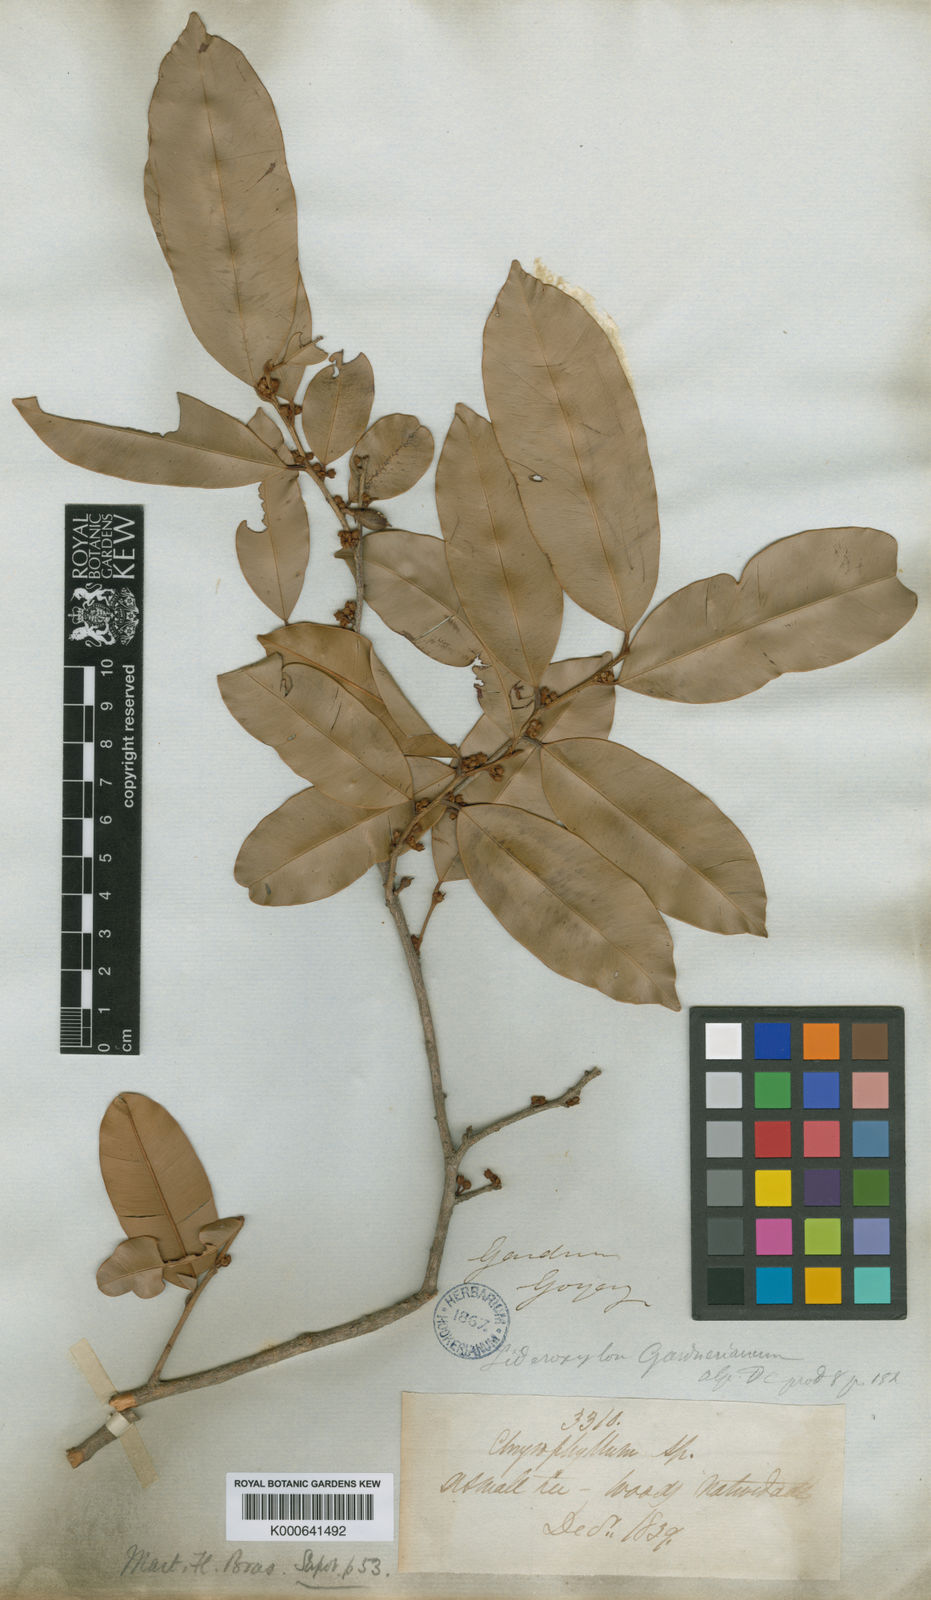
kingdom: Plantae
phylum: Tracheophyta
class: Magnoliopsida
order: Ericales
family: Sapotaceae
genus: Micropholis
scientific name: Micropholis gardneriana
